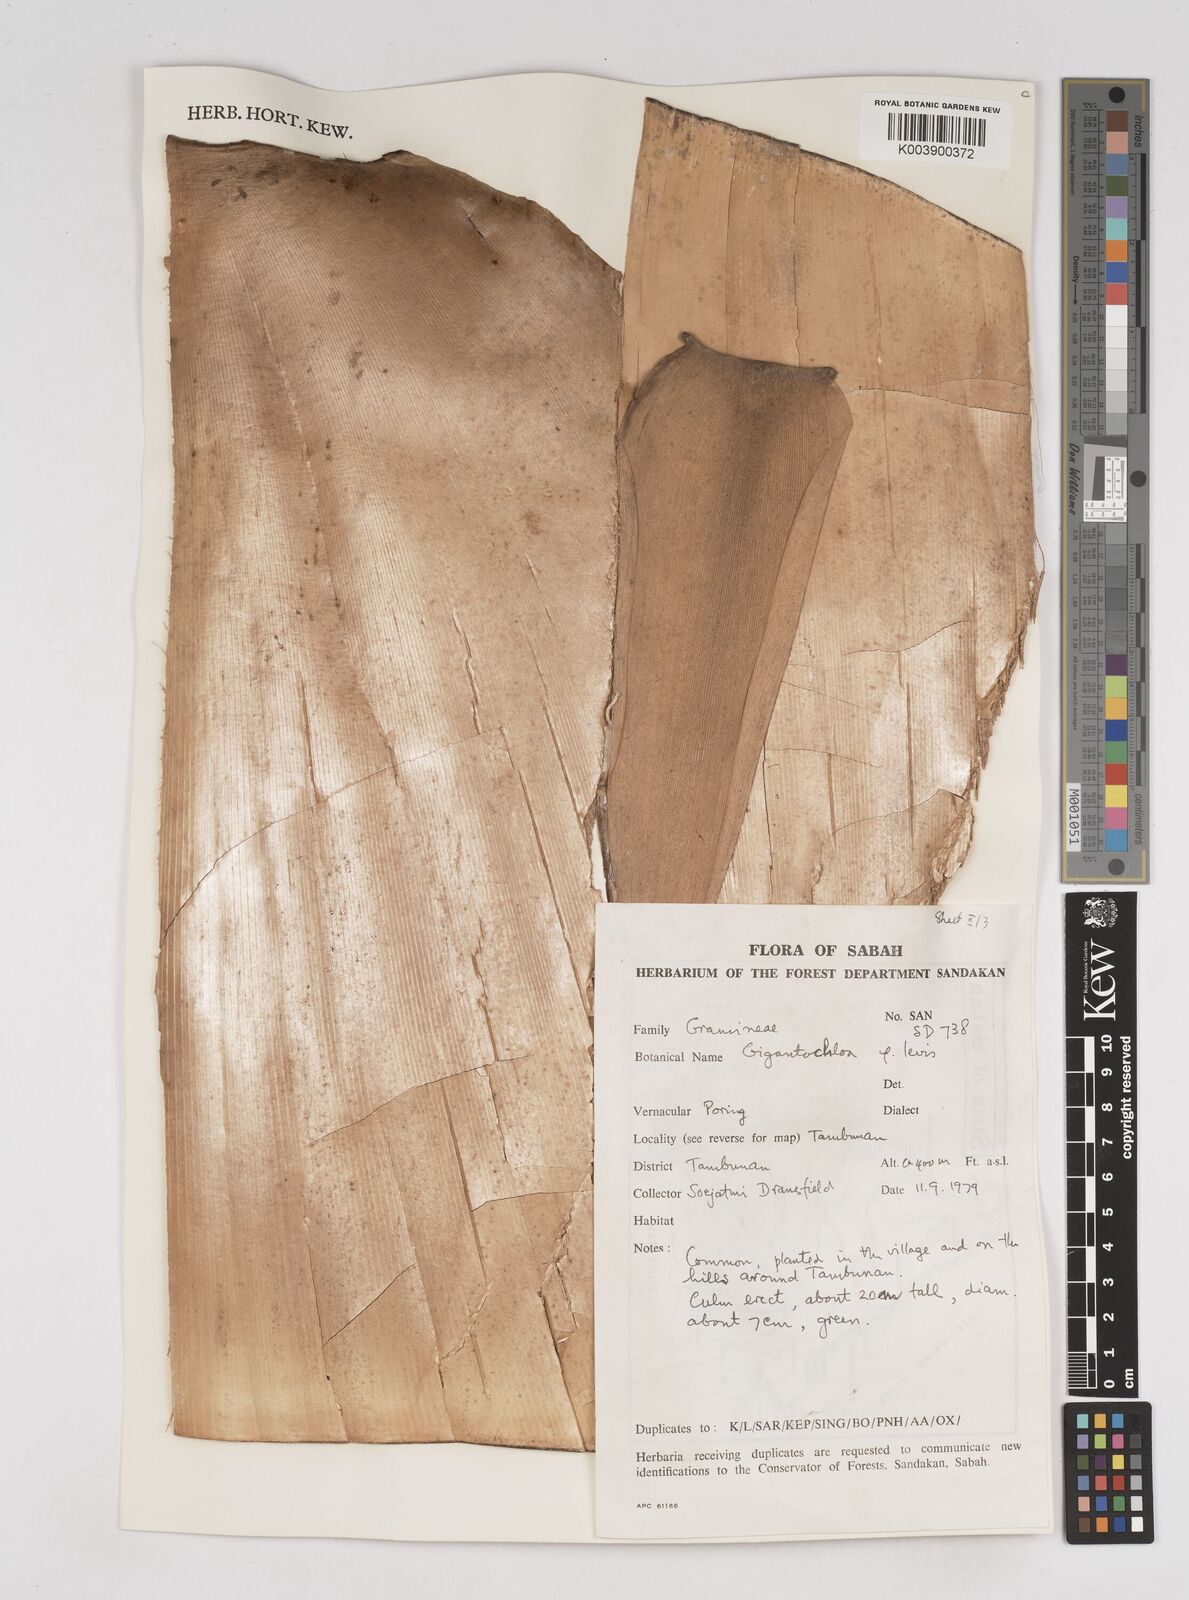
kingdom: Plantae
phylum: Tracheophyta
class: Liliopsida
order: Poales
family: Poaceae
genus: Gigantochloa
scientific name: Gigantochloa levis
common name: Smooth-shoot gigantochloa
